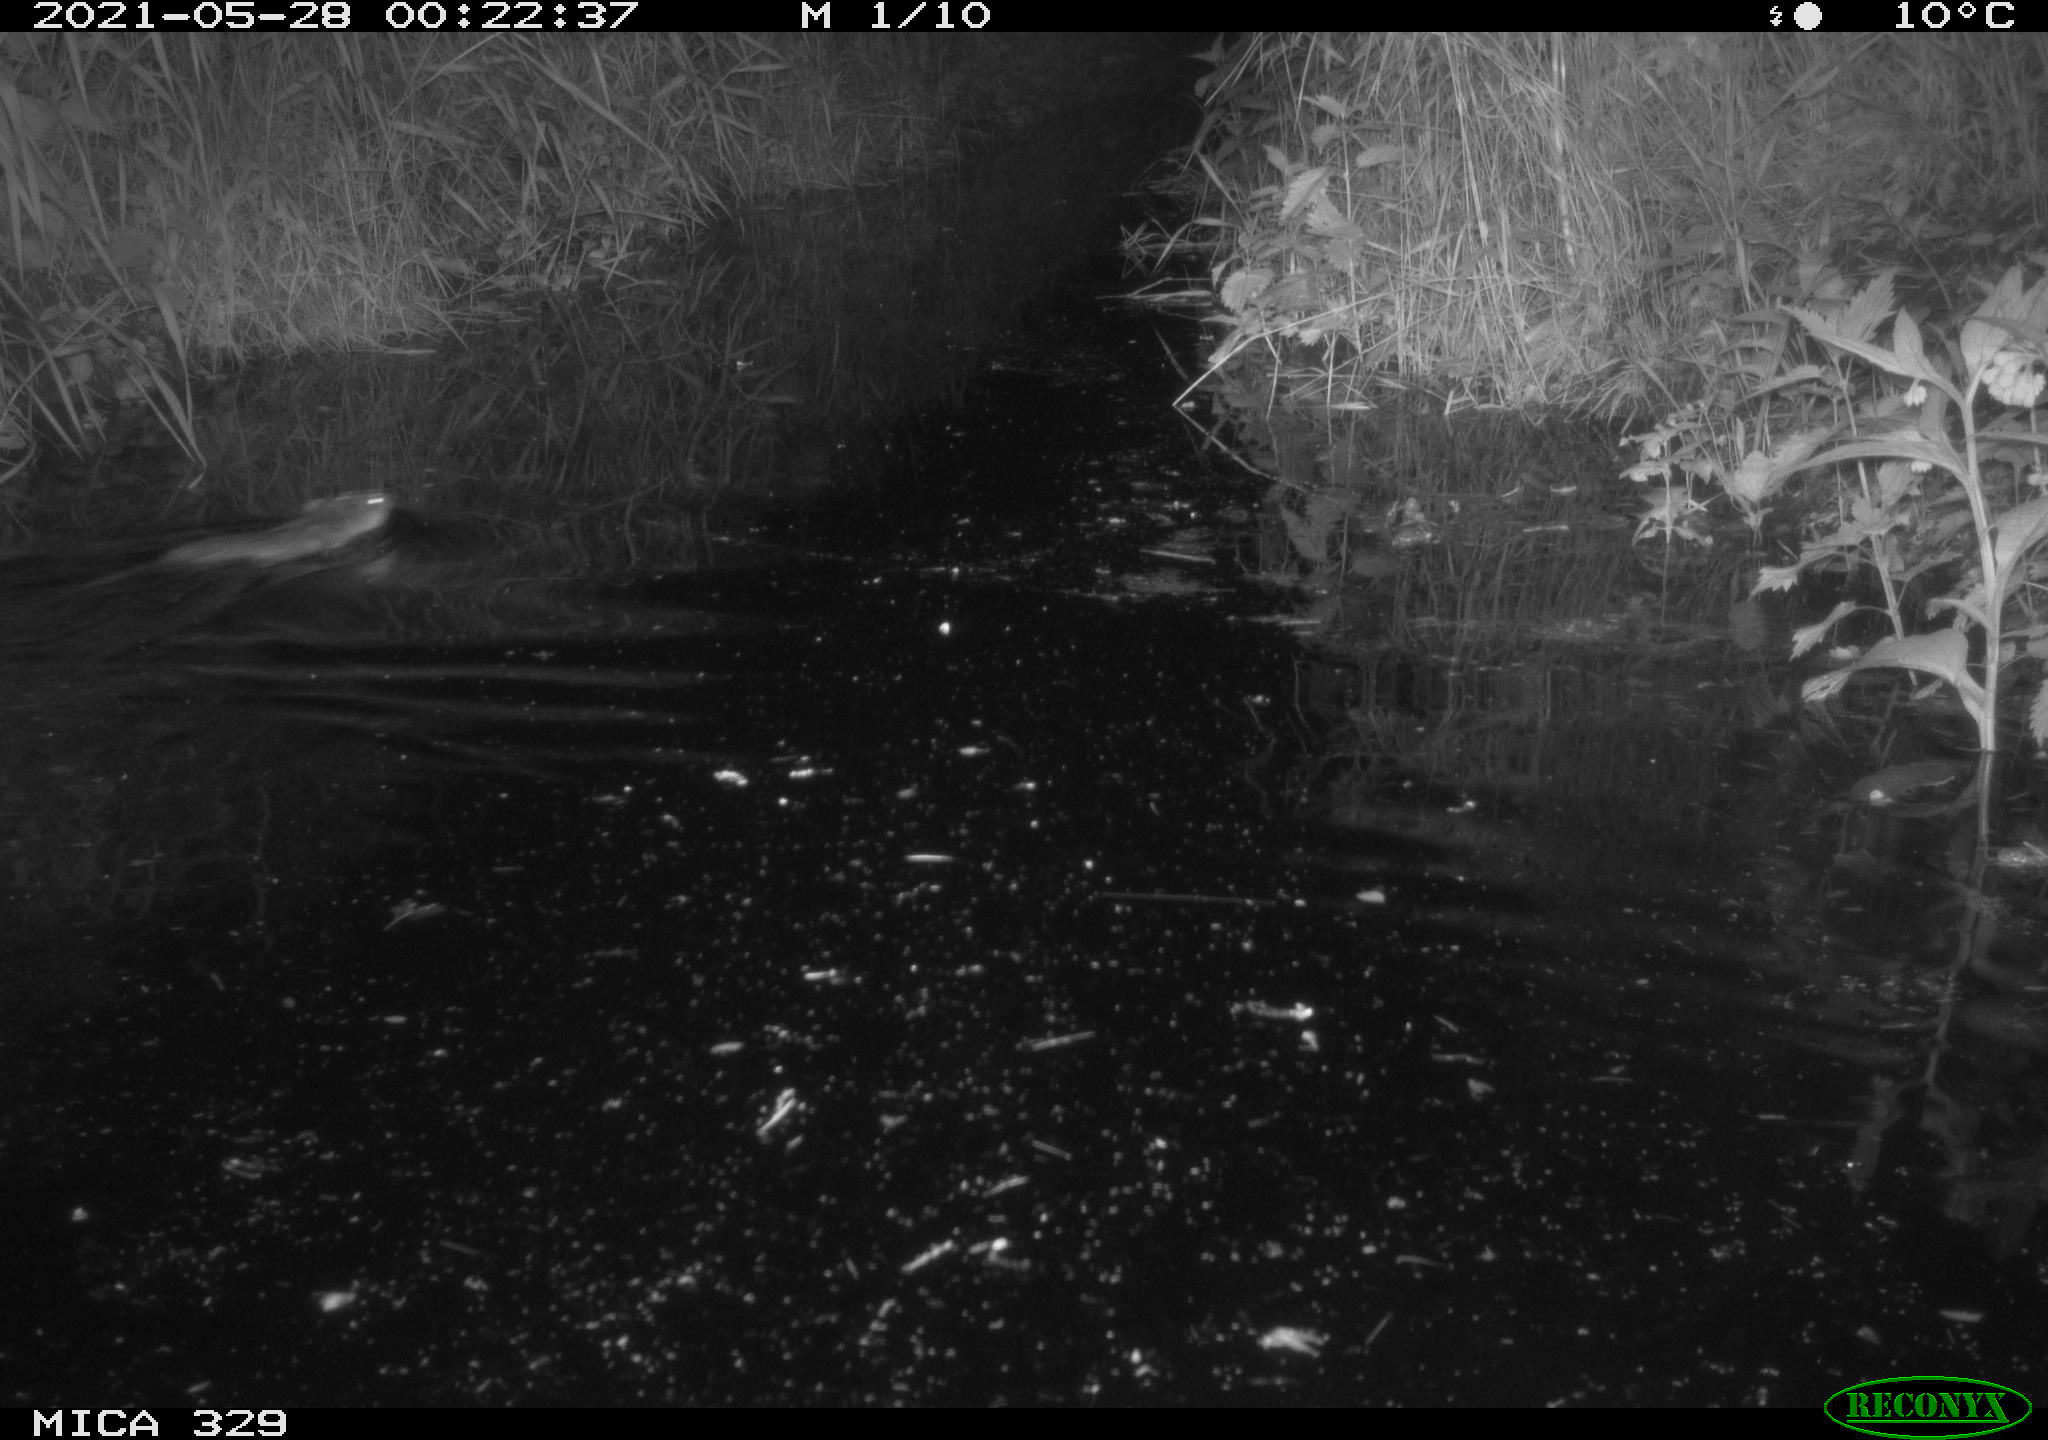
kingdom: Animalia
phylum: Chordata
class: Mammalia
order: Rodentia
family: Cricetidae
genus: Ondatra
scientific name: Ondatra zibethicus
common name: Muskrat
